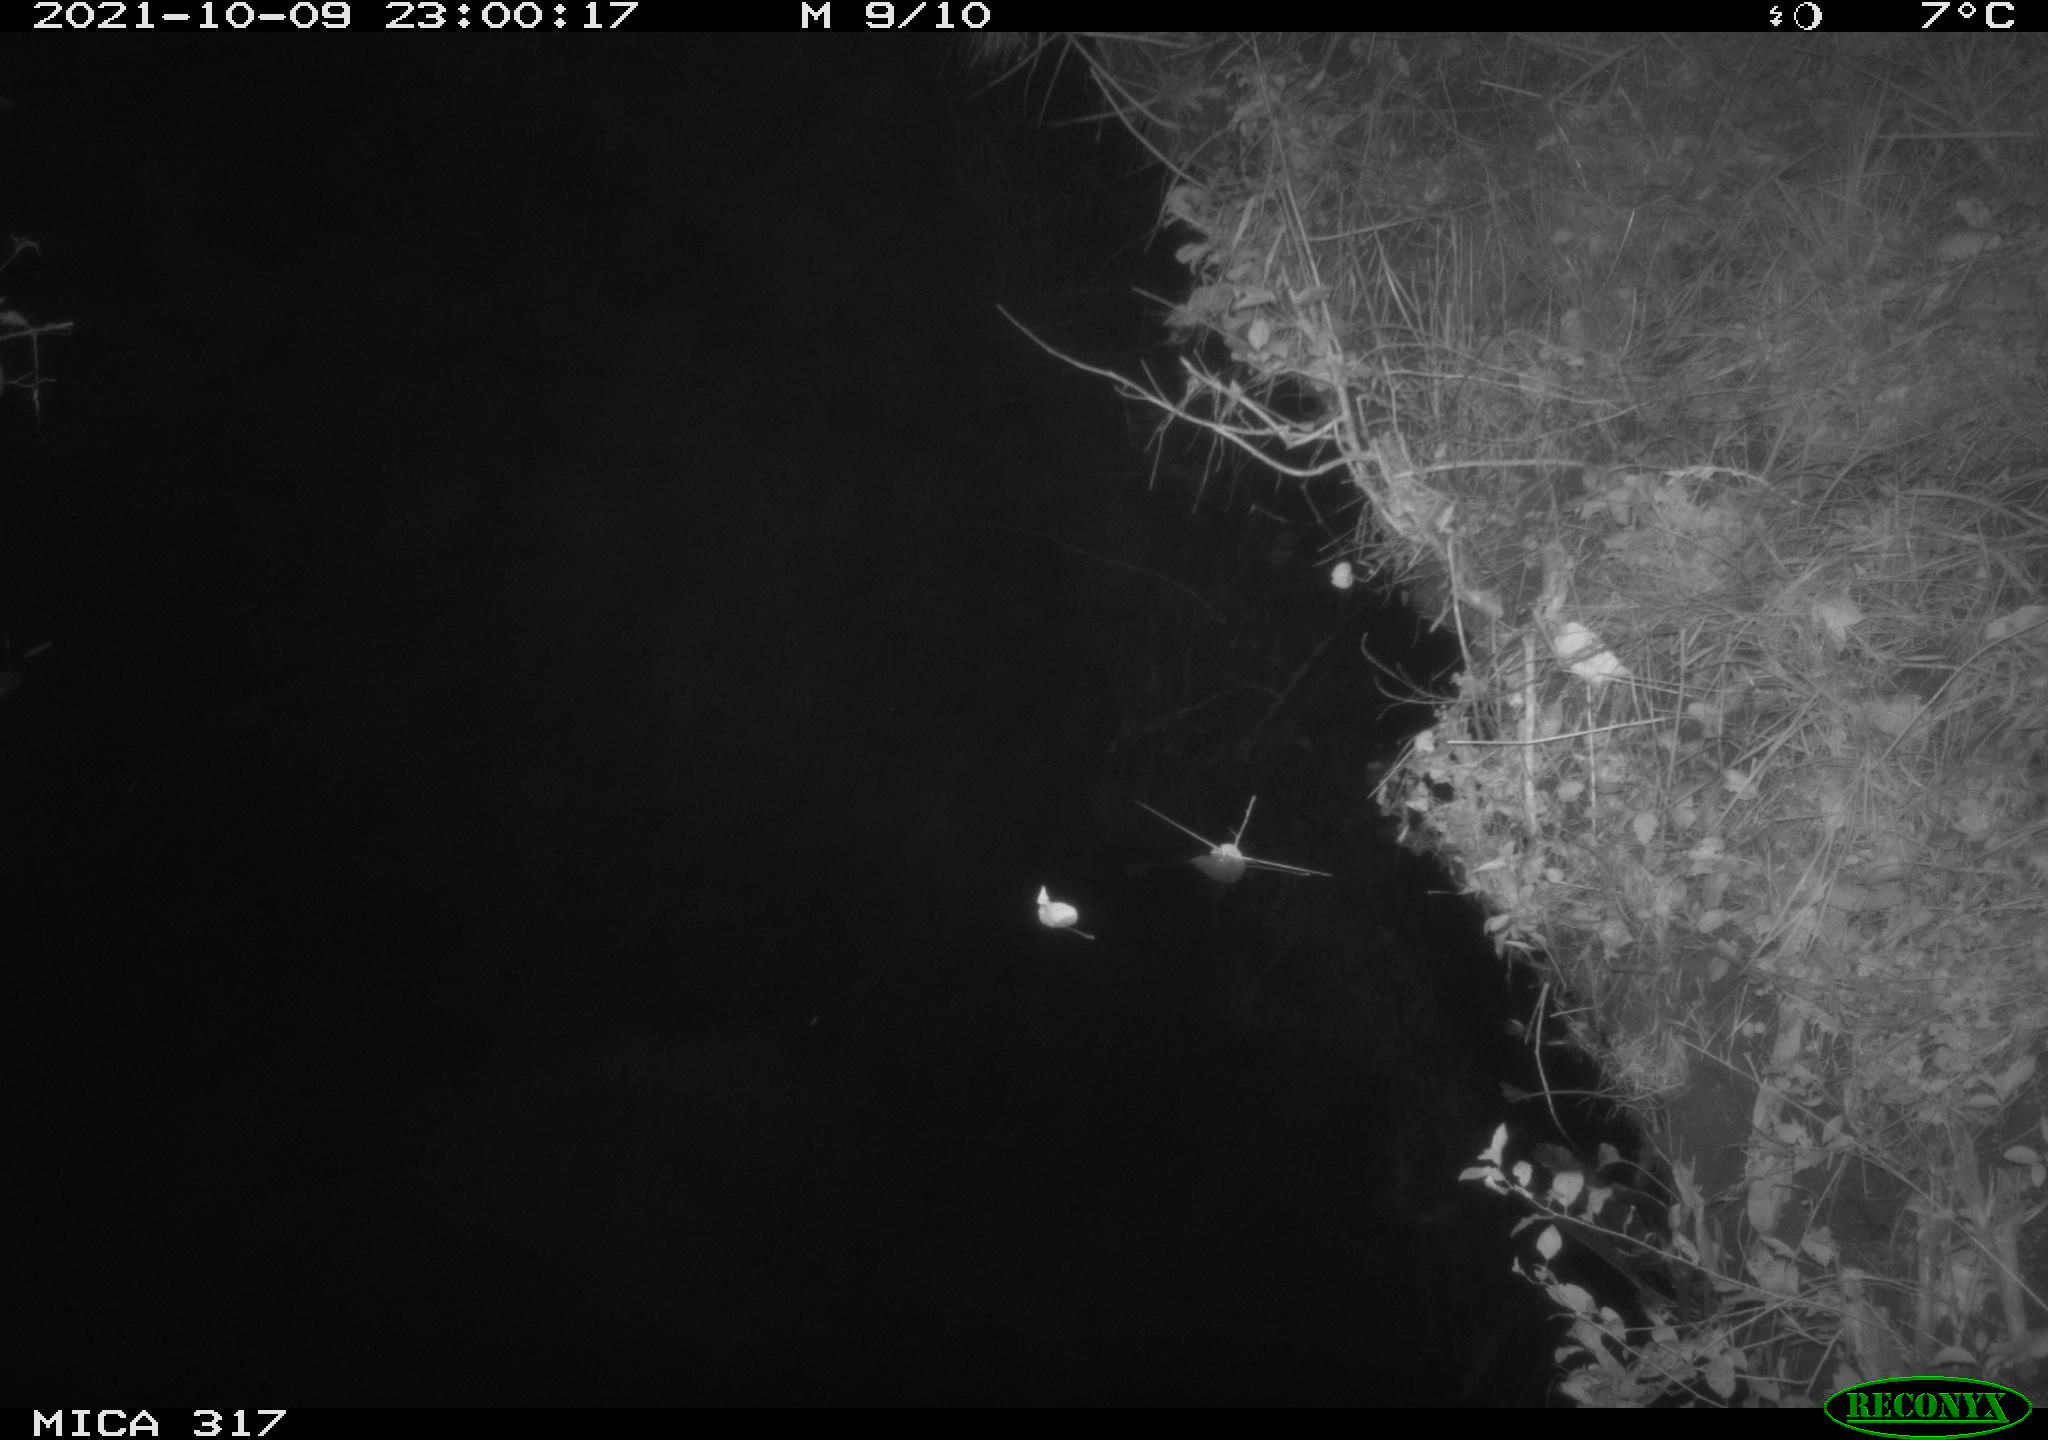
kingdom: Animalia
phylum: Chordata
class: Mammalia
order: Carnivora
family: Canidae
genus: Vulpes
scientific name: Vulpes vulpes
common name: Red fox
